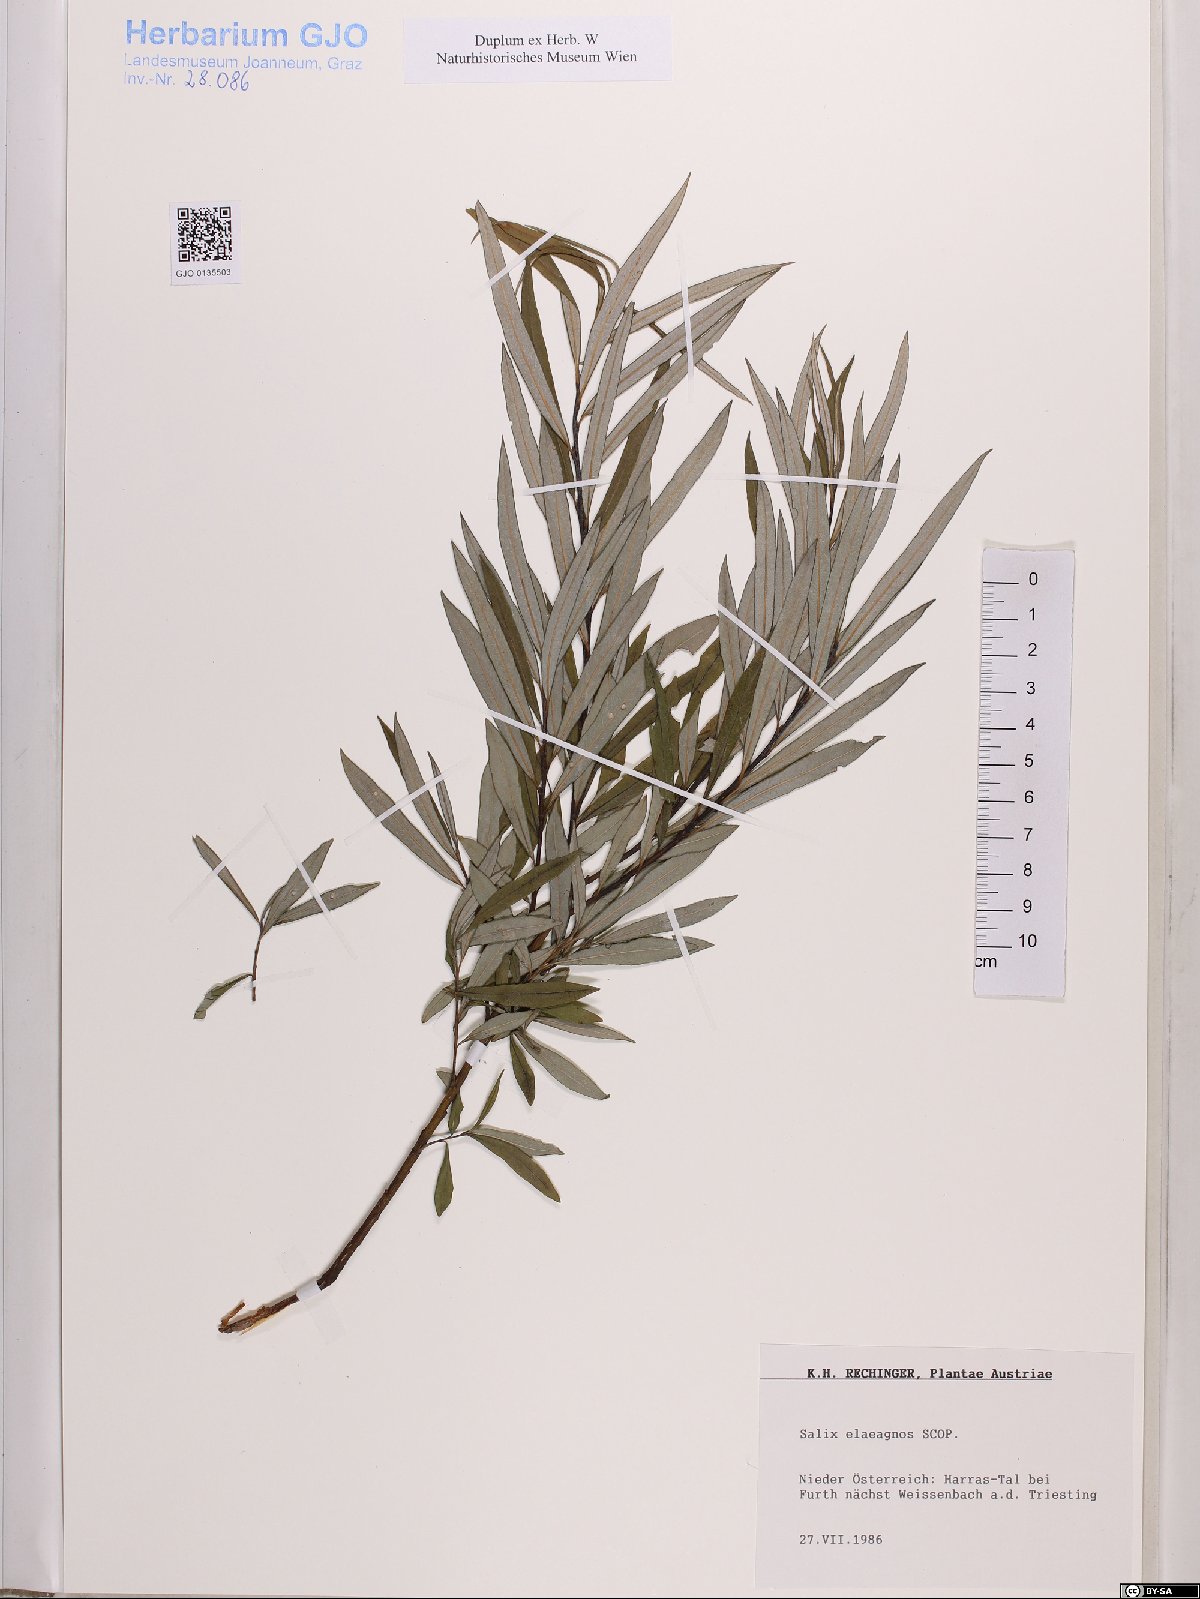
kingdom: Plantae
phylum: Tracheophyta
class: Magnoliopsida
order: Malpighiales
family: Salicaceae
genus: Salix
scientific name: Salix eleagnos
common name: Elaeagnus willow
